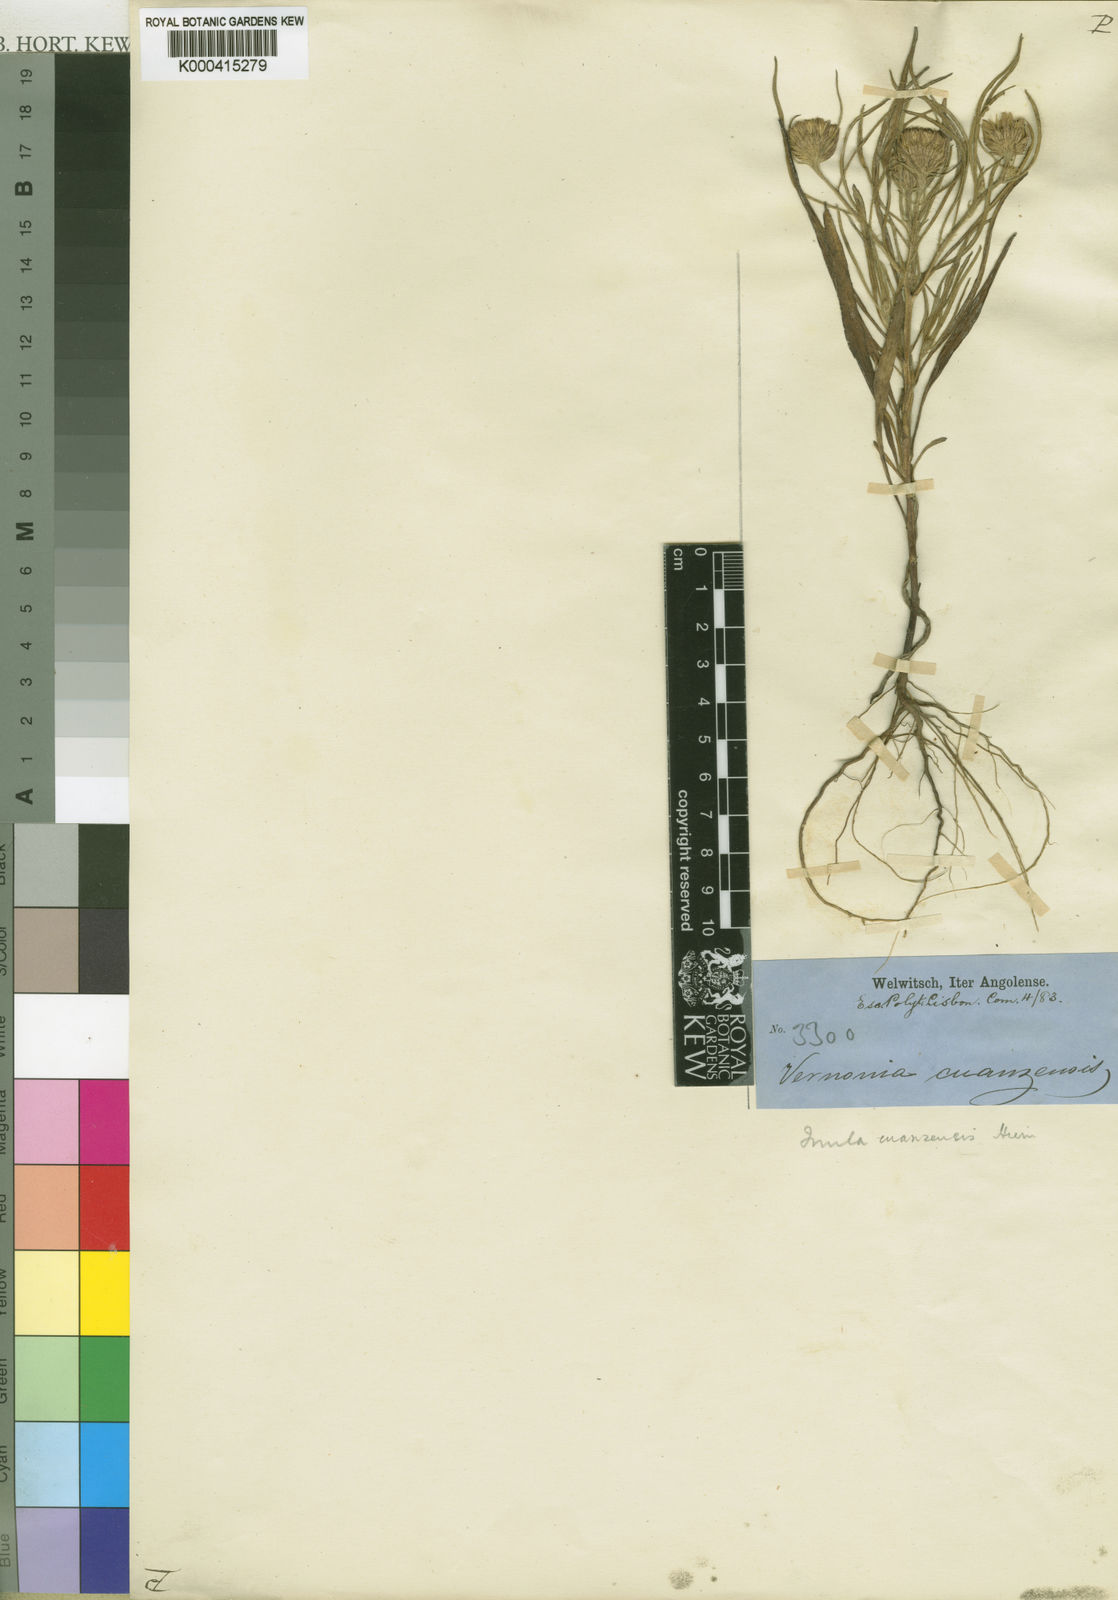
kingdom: Plantae
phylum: Tracheophyta
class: Magnoliopsida
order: Asterales
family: Asteraceae
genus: Inula
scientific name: Inula cuanzensis
